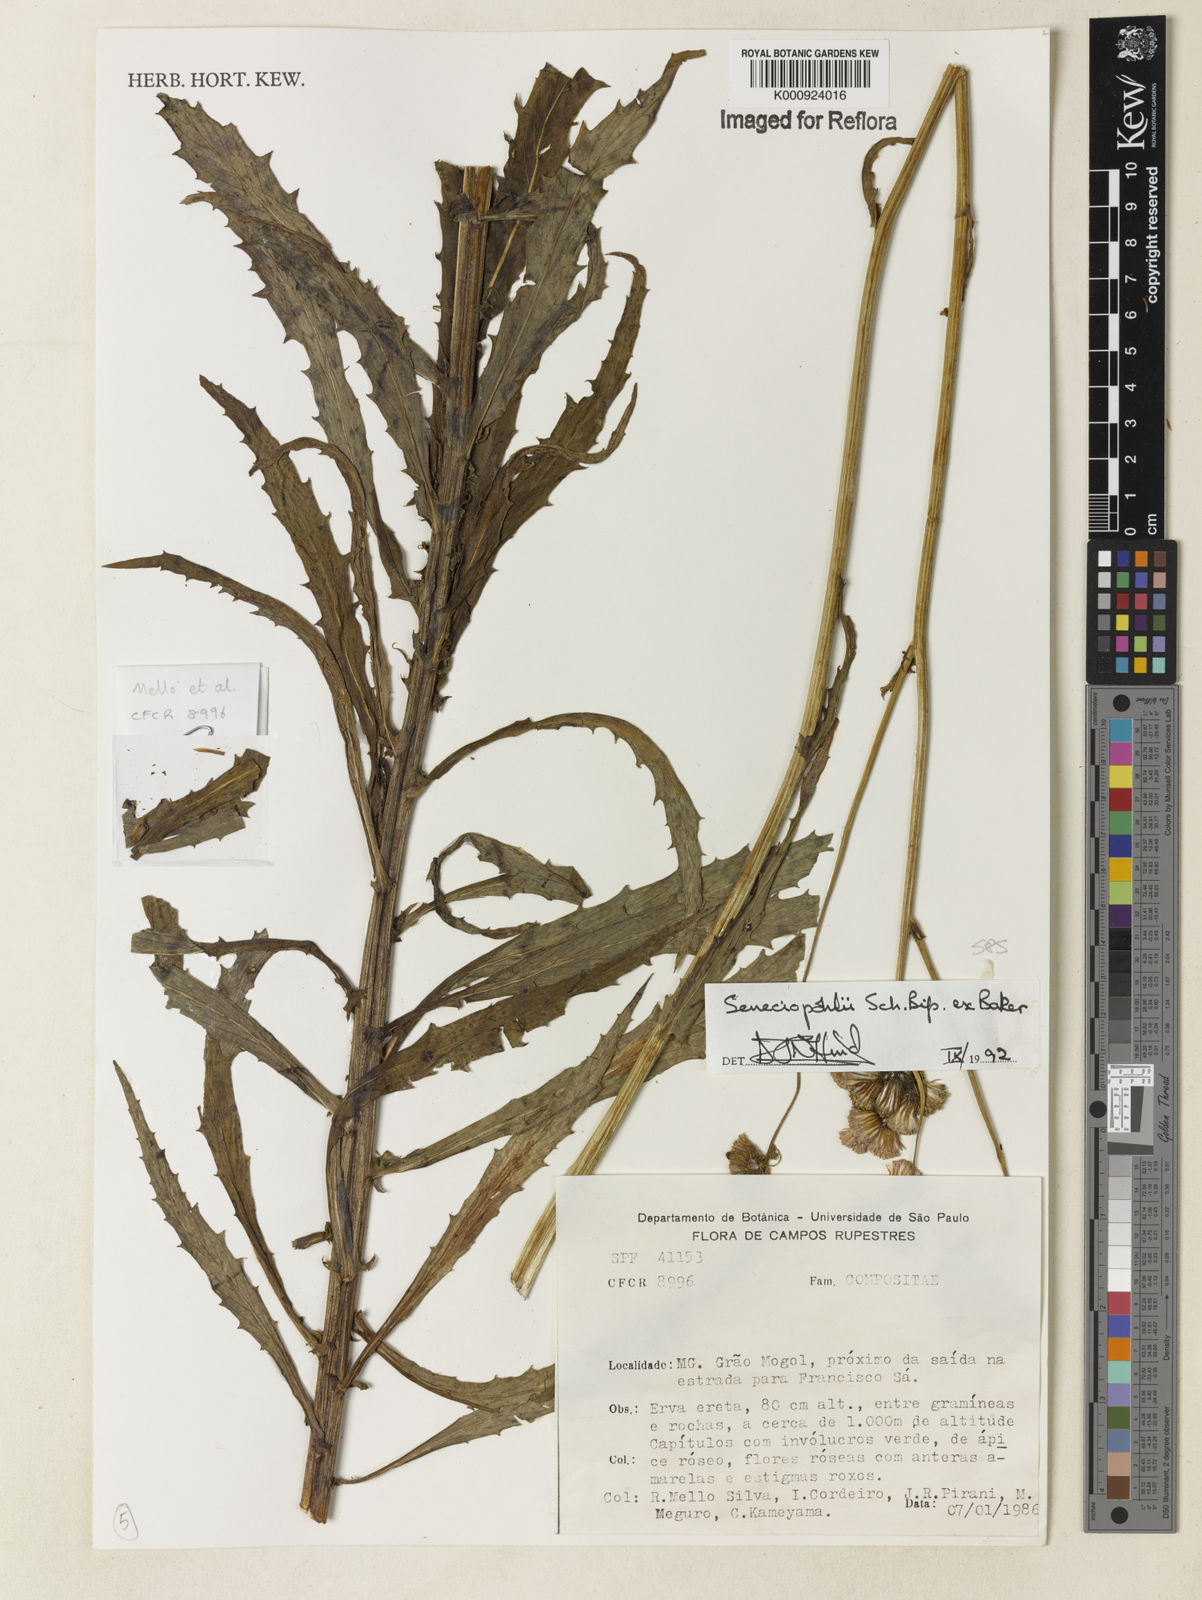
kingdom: Plantae
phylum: Tracheophyta
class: Magnoliopsida
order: Asterales
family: Asteraceae
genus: Pseudogynoxys
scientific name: Pseudogynoxys pohlii
